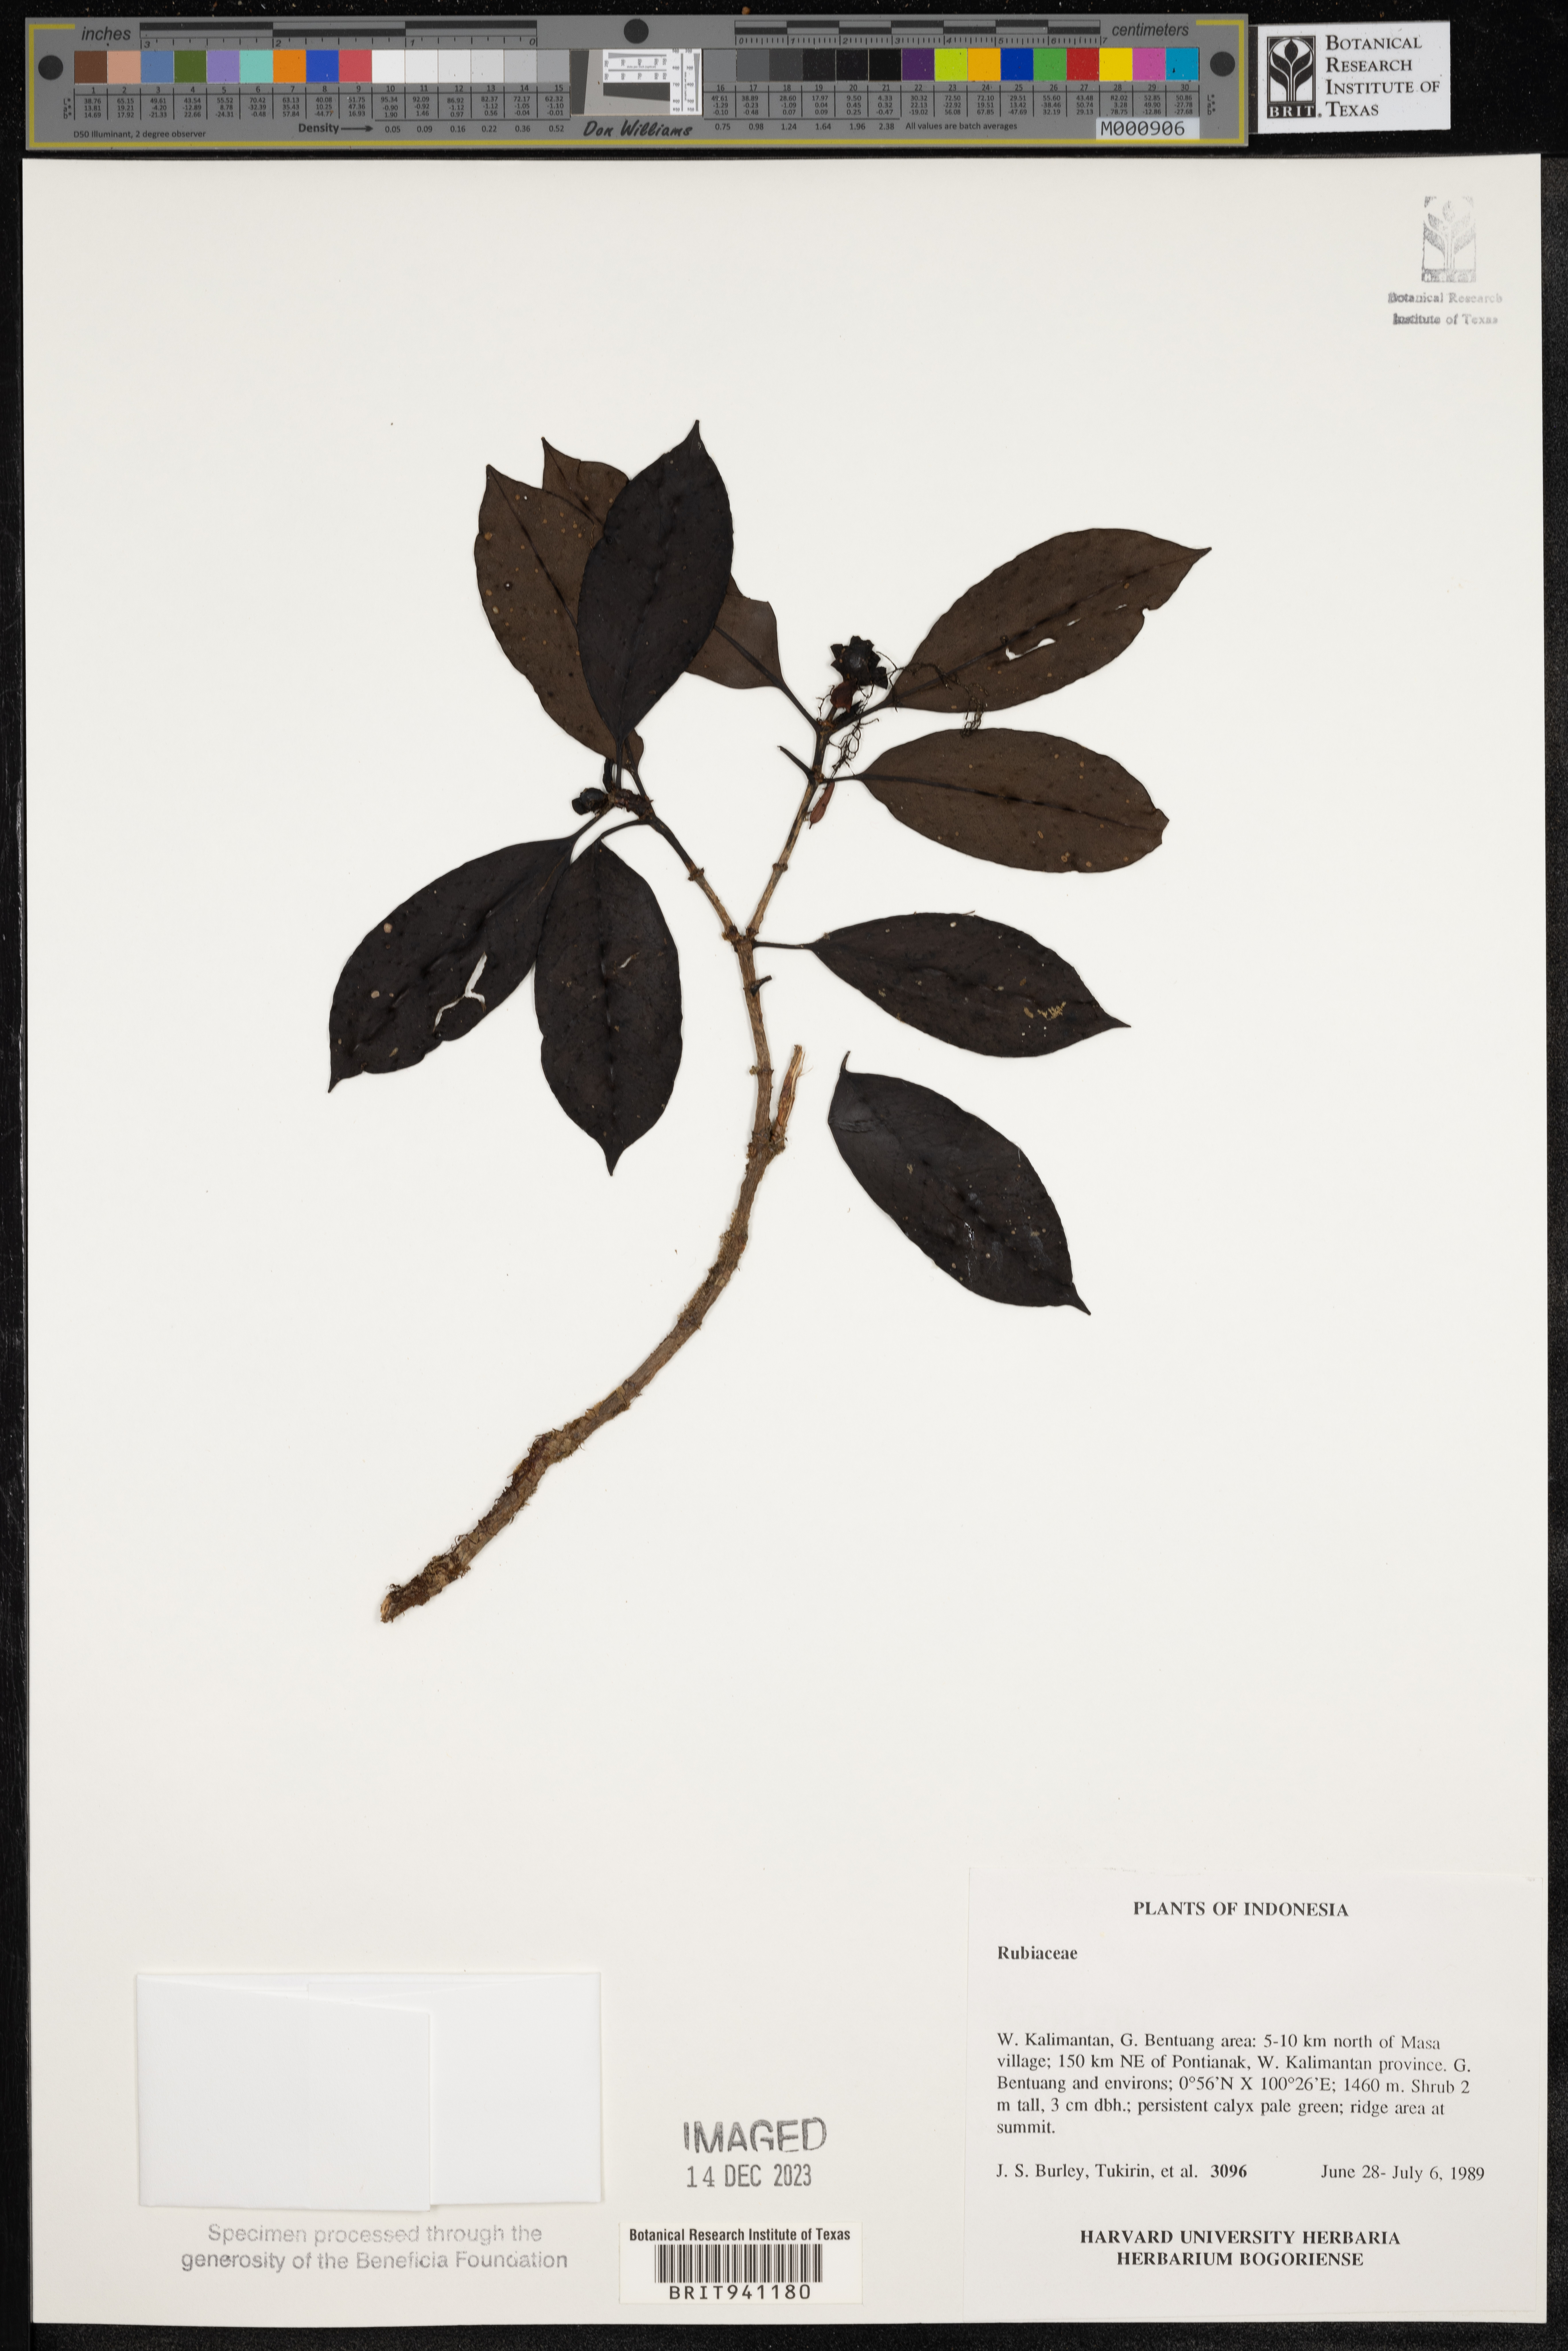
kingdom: Plantae
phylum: Tracheophyta
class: Magnoliopsida
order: Gentianales
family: Rubiaceae
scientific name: Rubiaceae
